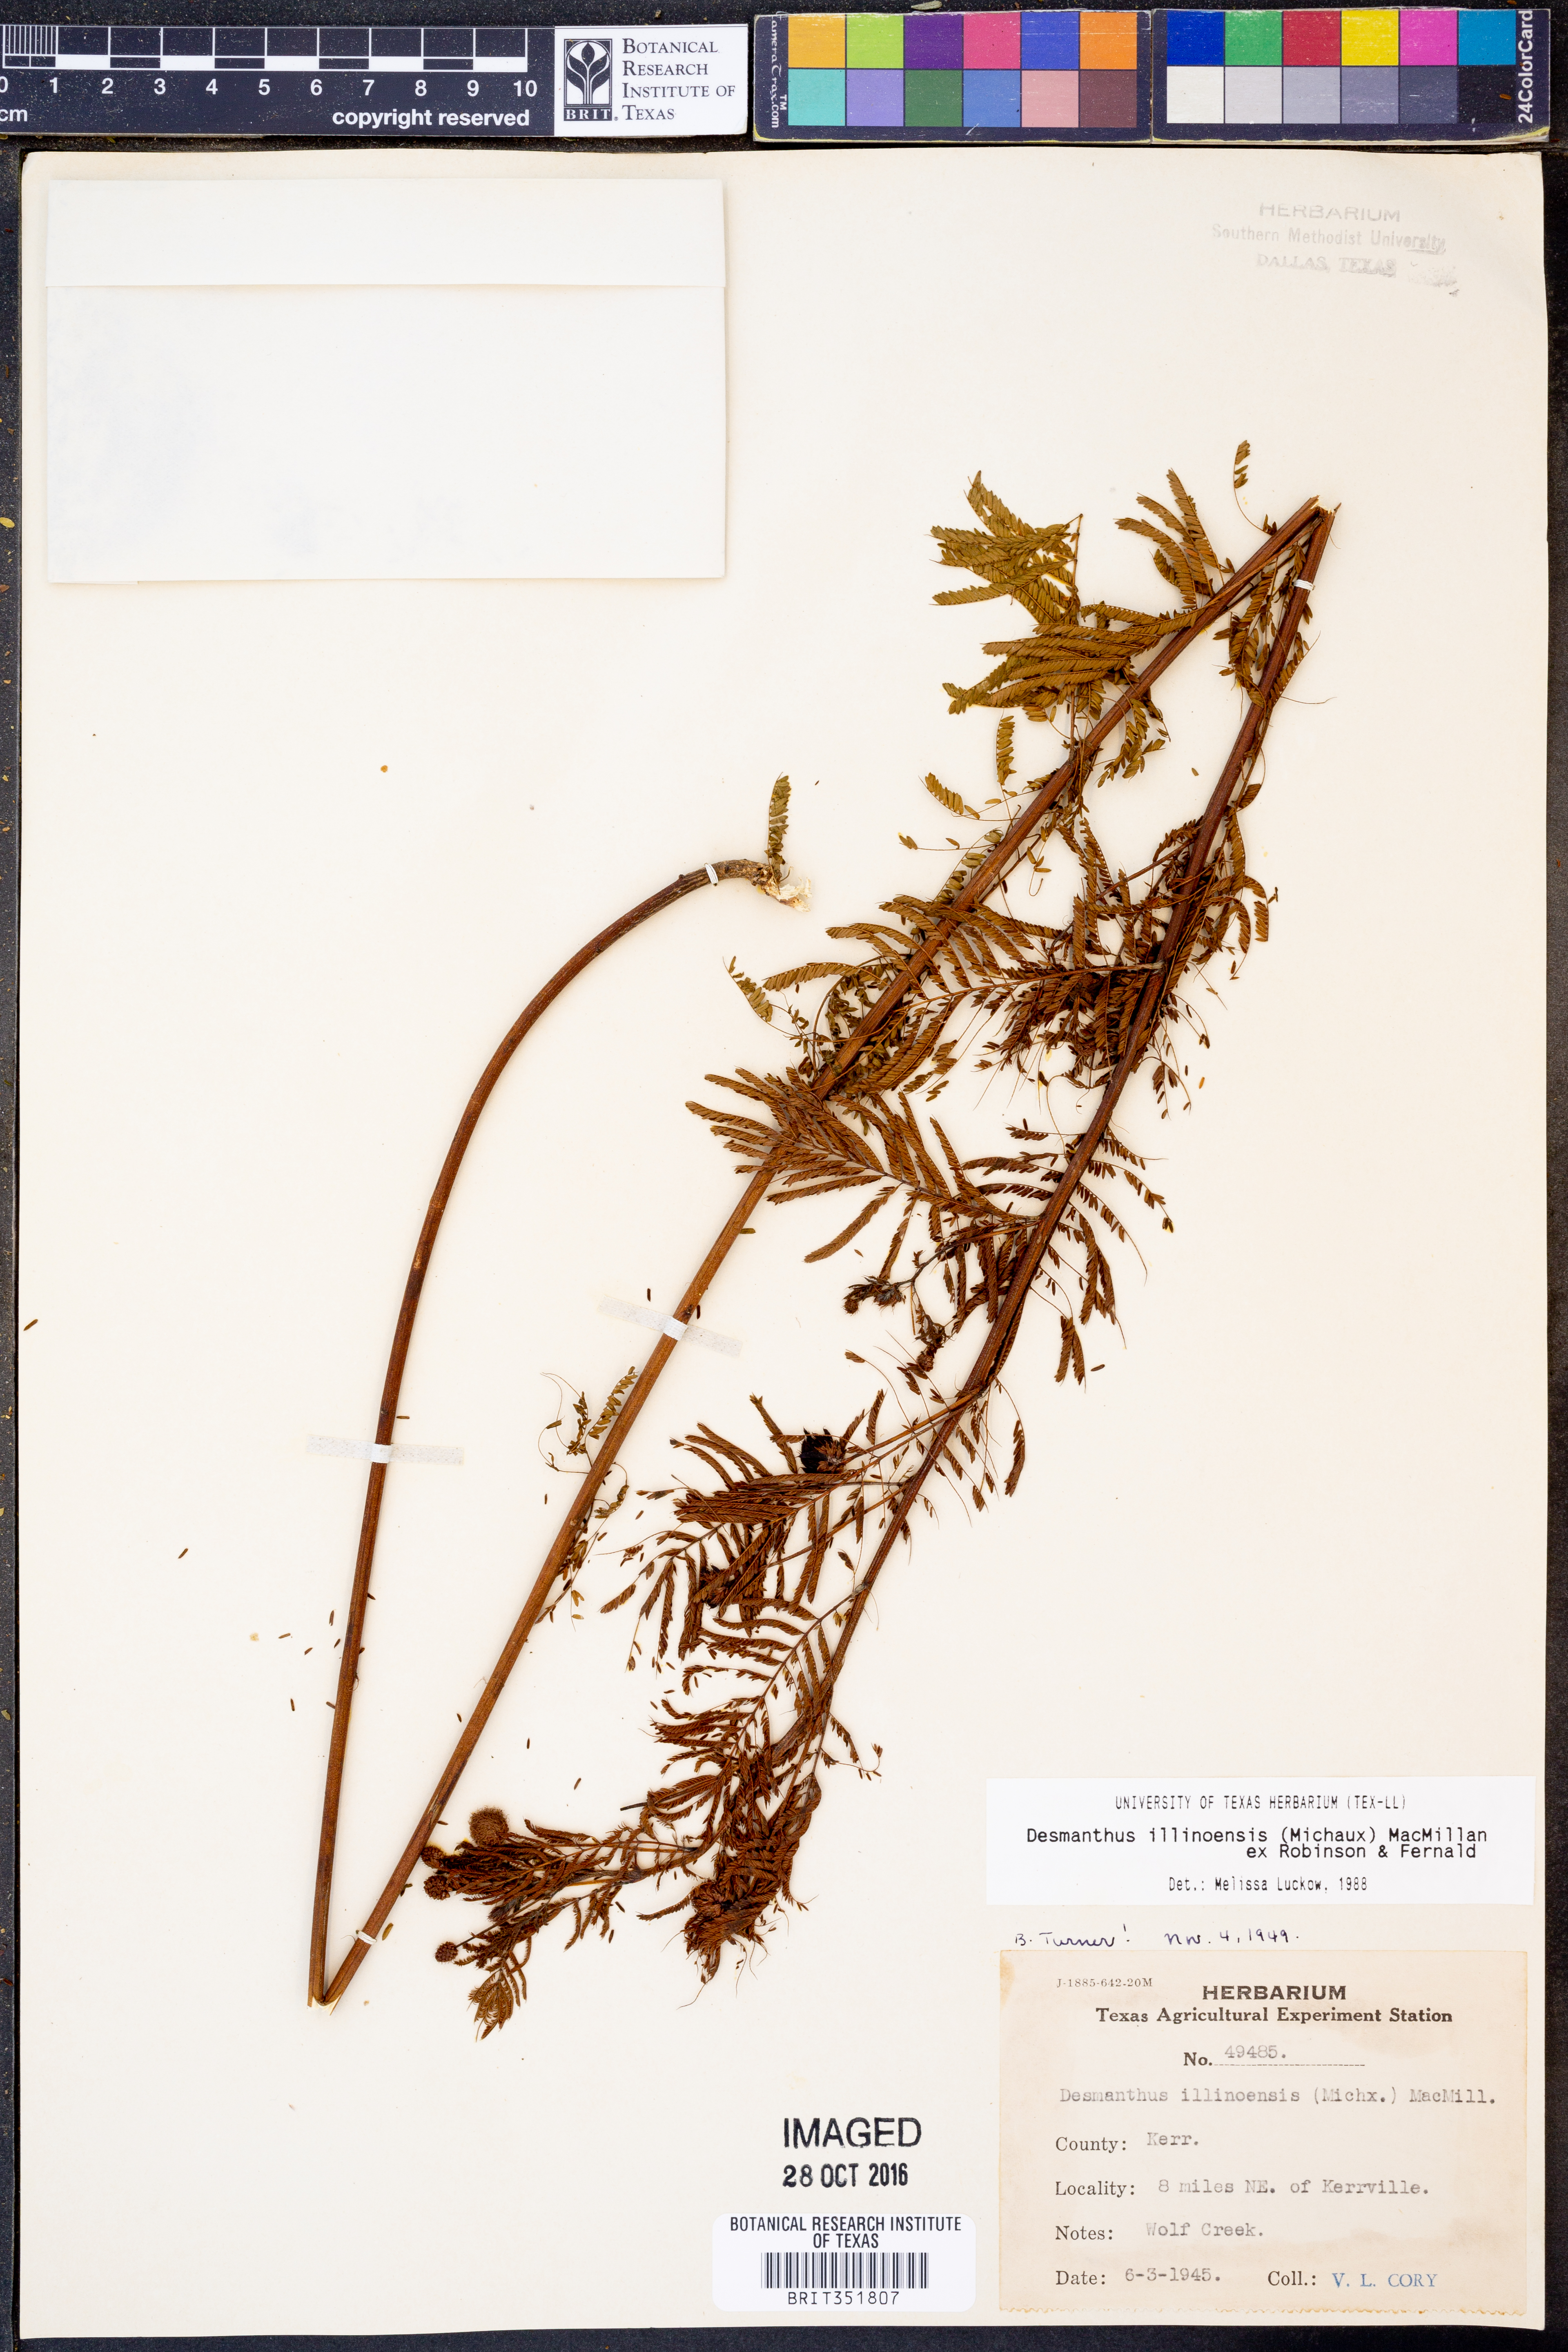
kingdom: Plantae
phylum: Tracheophyta
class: Magnoliopsida
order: Fabales
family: Fabaceae
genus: Desmanthus
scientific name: Desmanthus illinoensis
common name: Illinois bundle-flower
